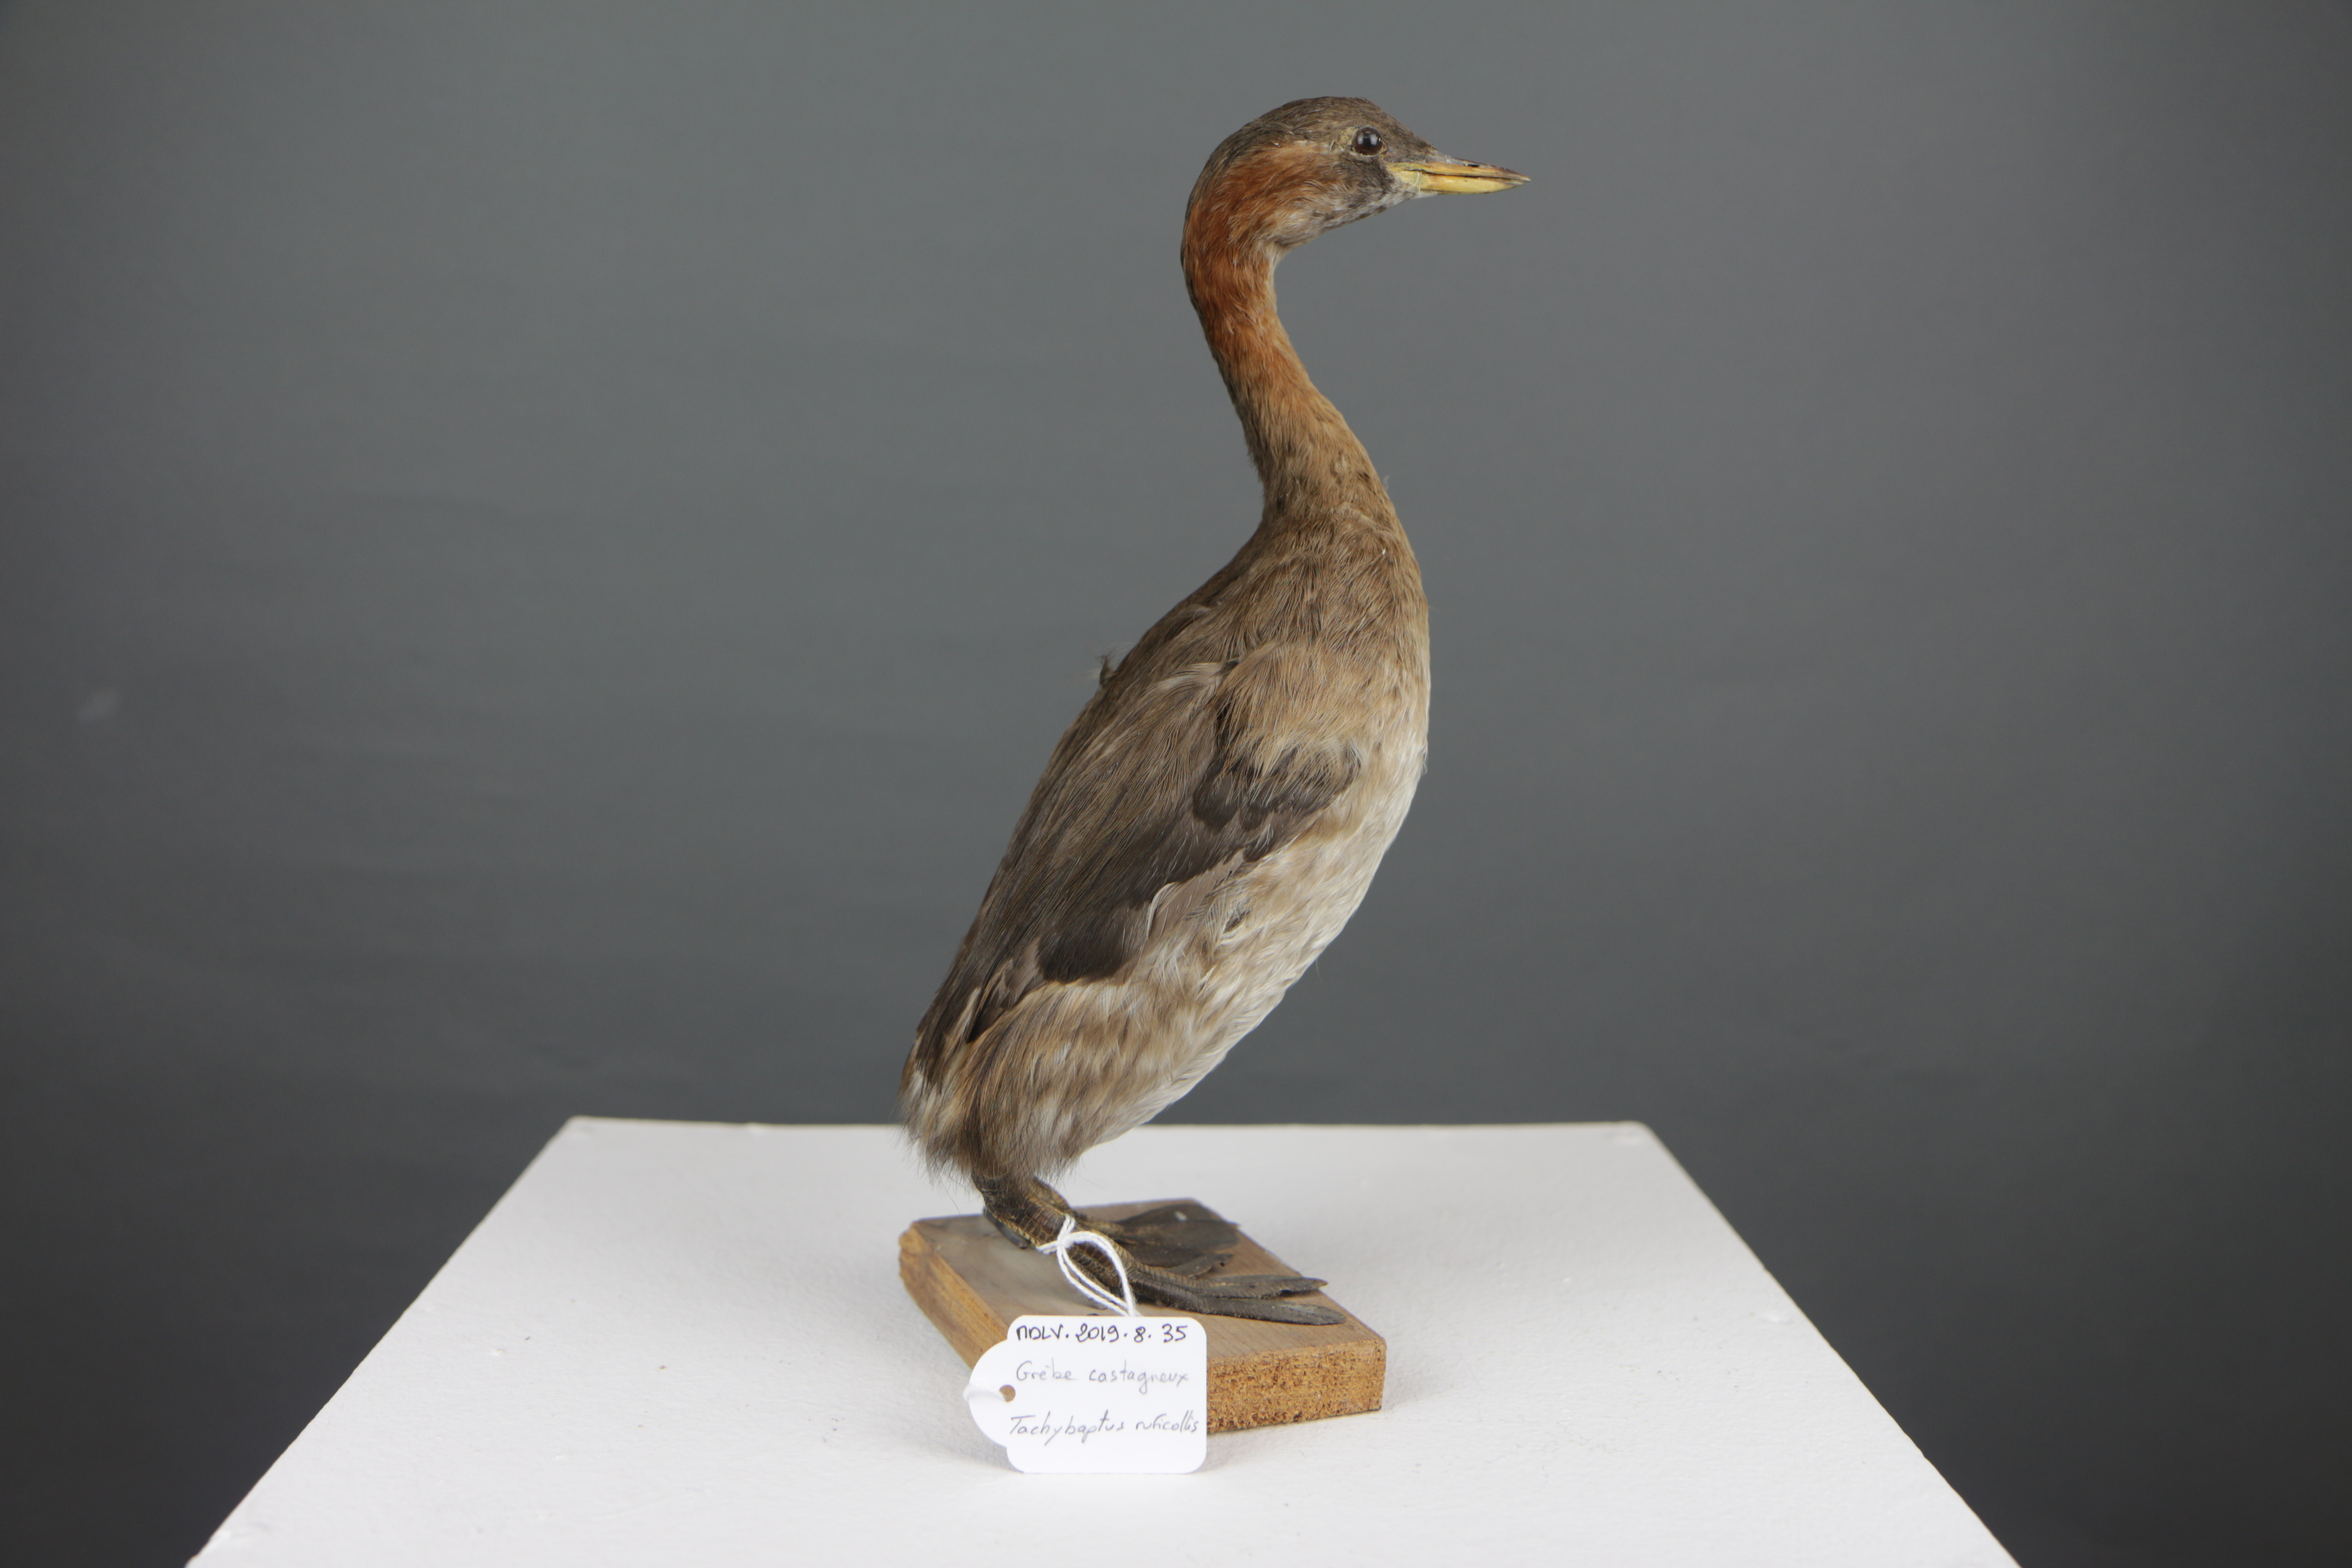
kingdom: Animalia
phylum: Chordata
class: Aves
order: Podicipediformes
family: Podicipedidae
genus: Tachybaptus
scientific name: Tachybaptus ruficollis
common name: Little grebe
